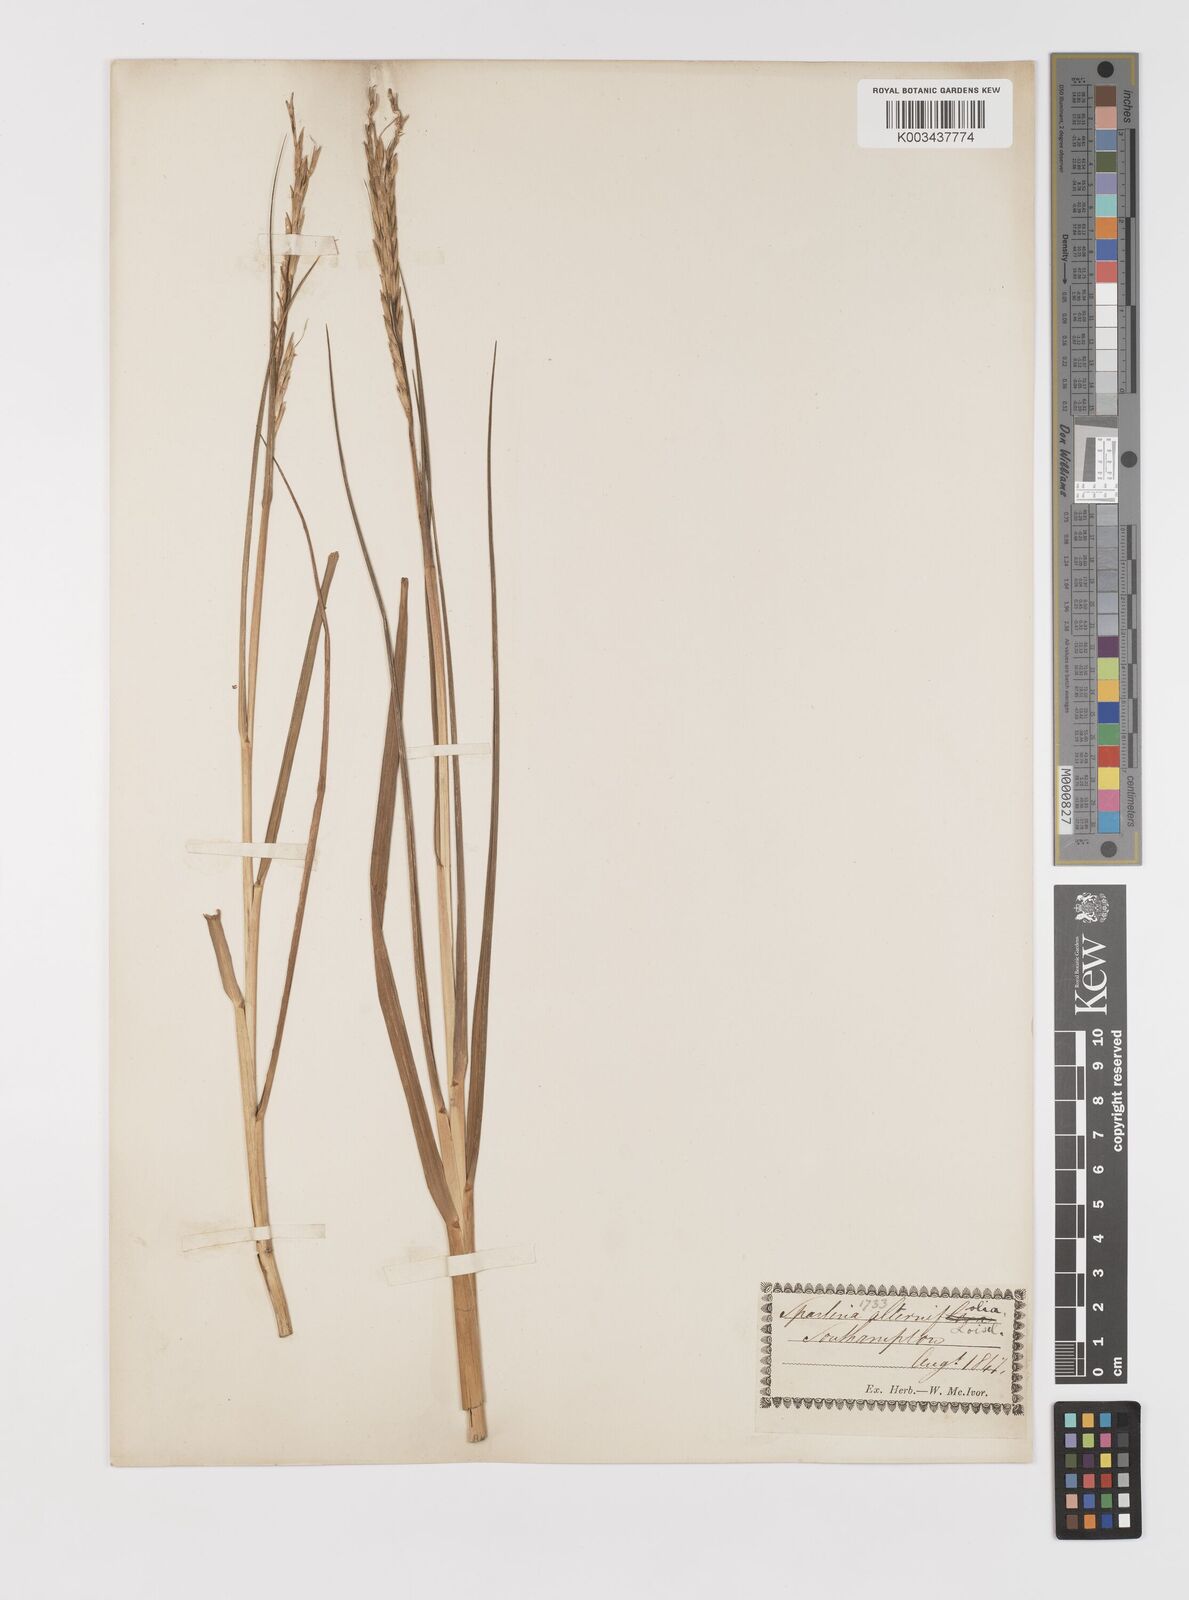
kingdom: Plantae
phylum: Tracheophyta
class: Liliopsida
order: Poales
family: Poaceae
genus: Sporobolus
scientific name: Sporobolus alterniflorus
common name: Atlantic cordgrass
